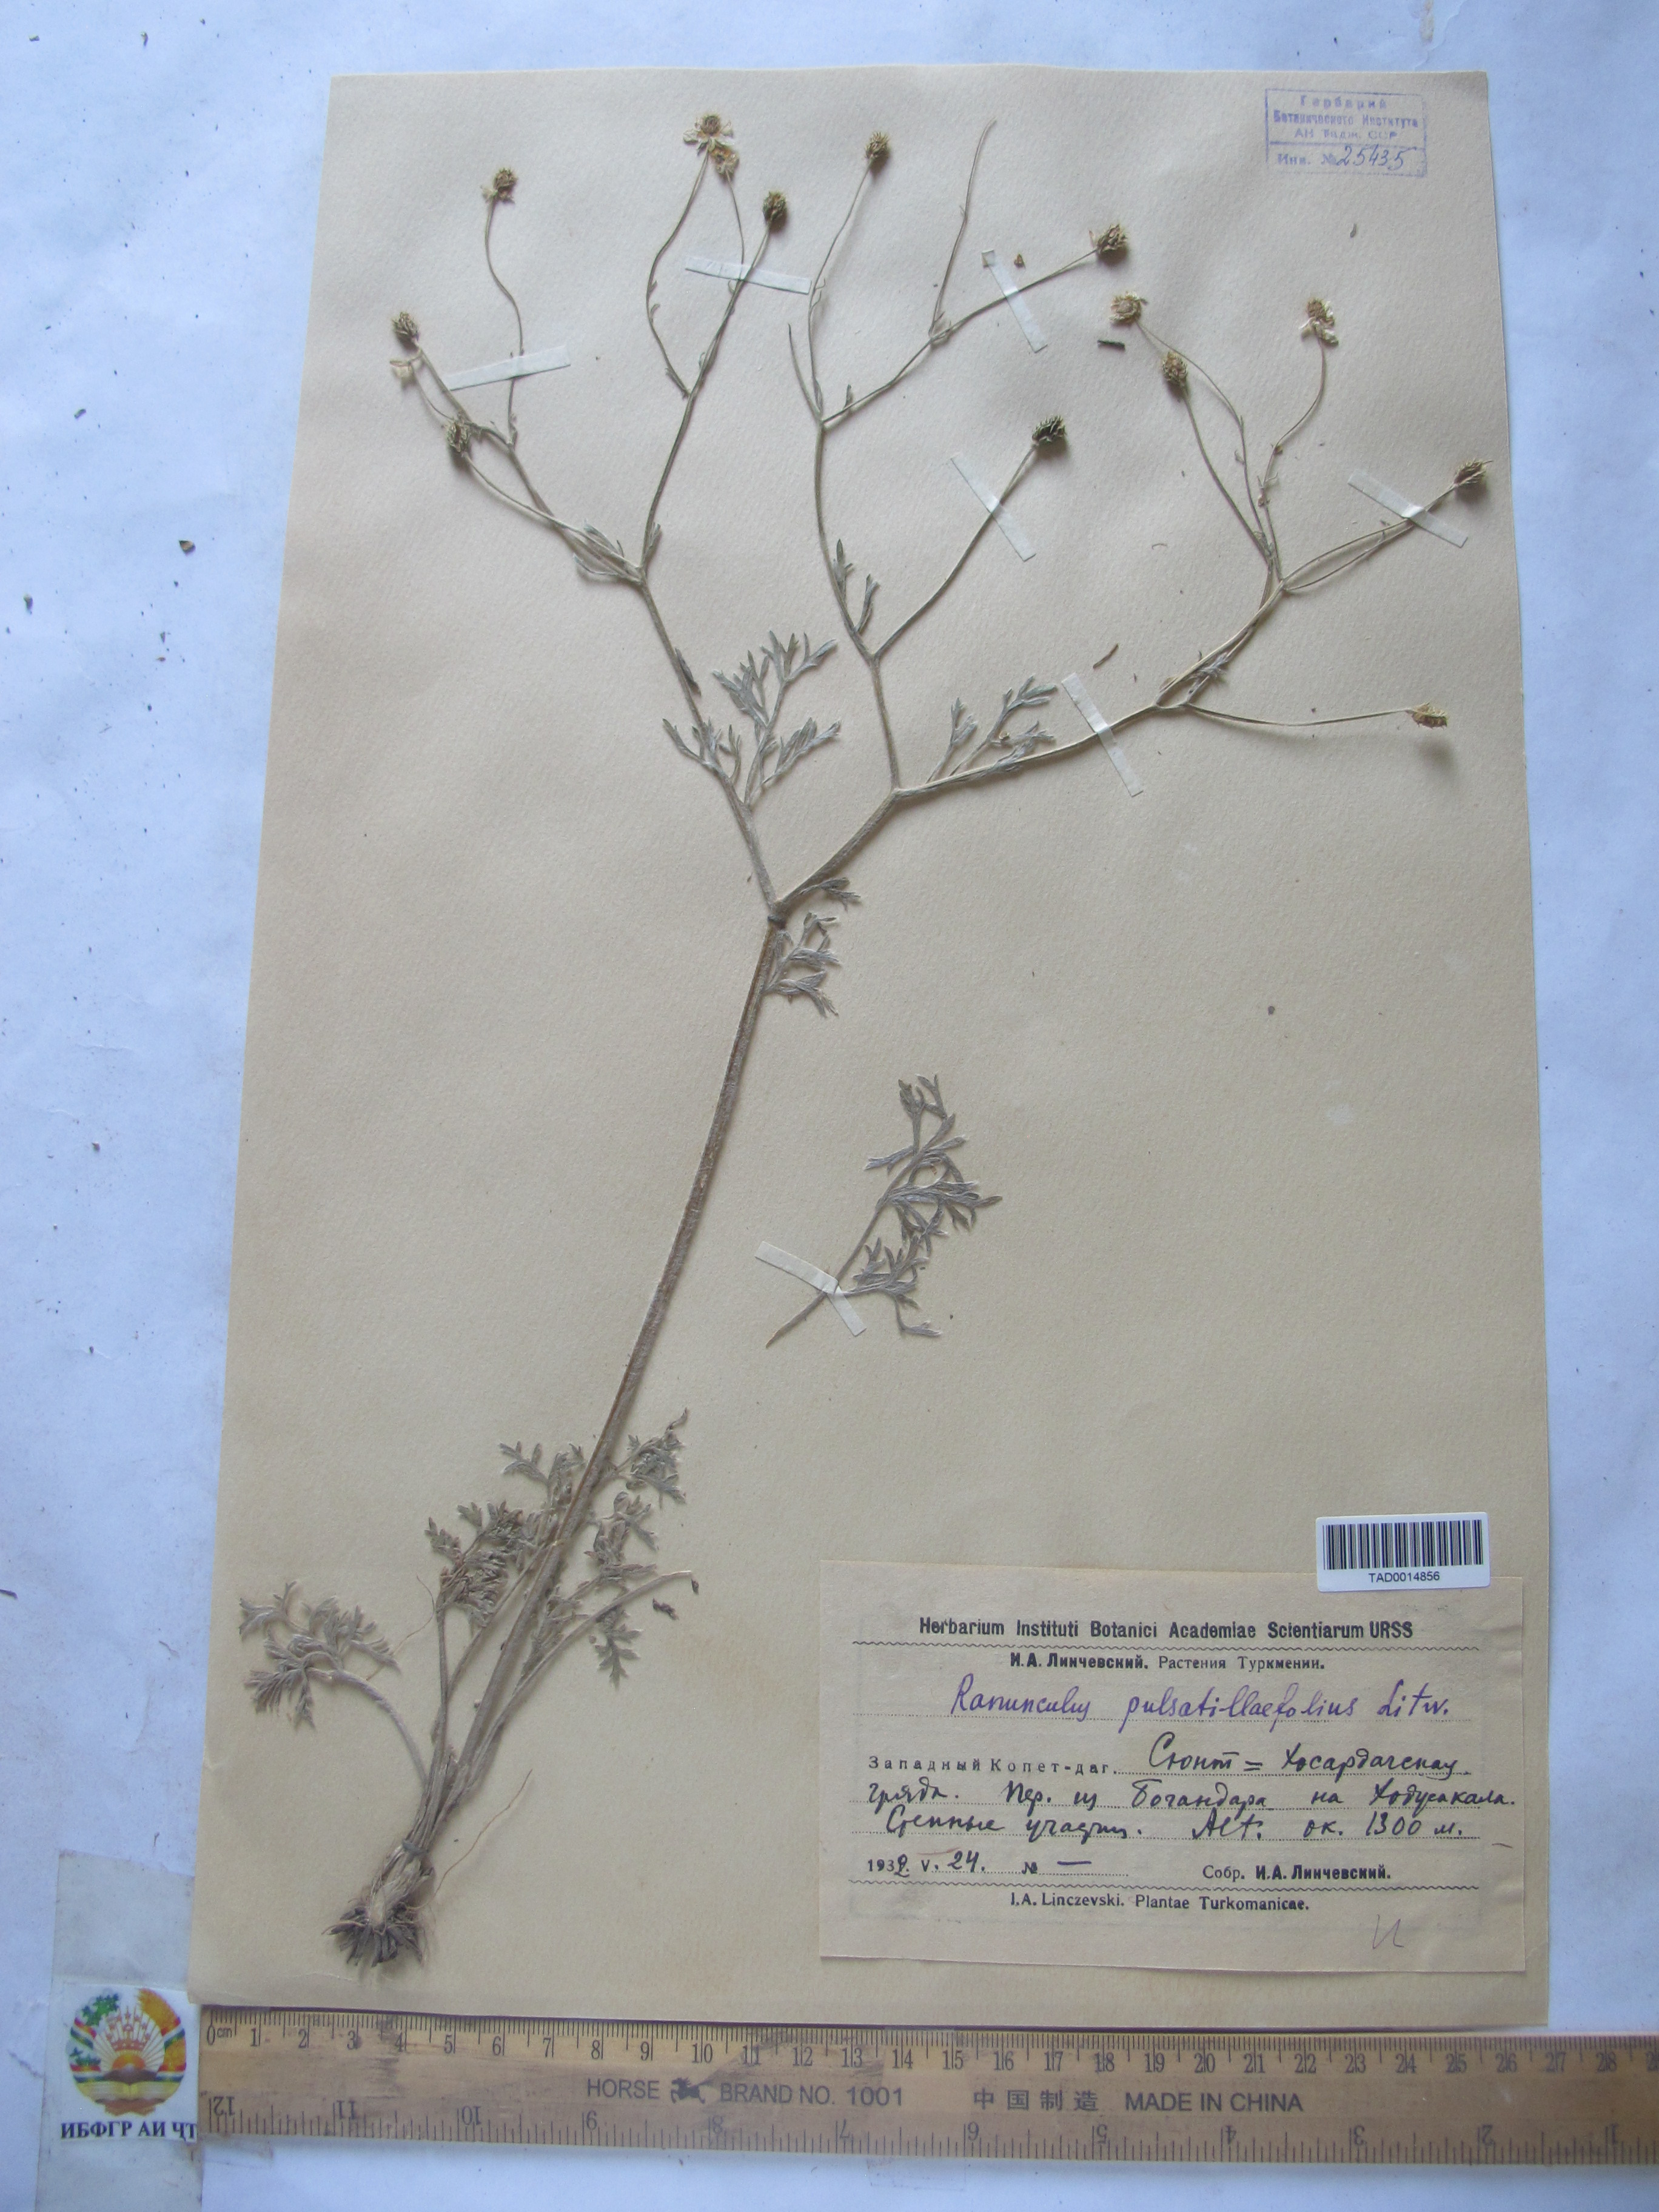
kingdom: Plantae
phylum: Tracheophyta
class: Magnoliopsida
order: Ranunculales
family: Ranunculaceae
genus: Ranunculus
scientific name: Ranunculus pulsatillifolius
